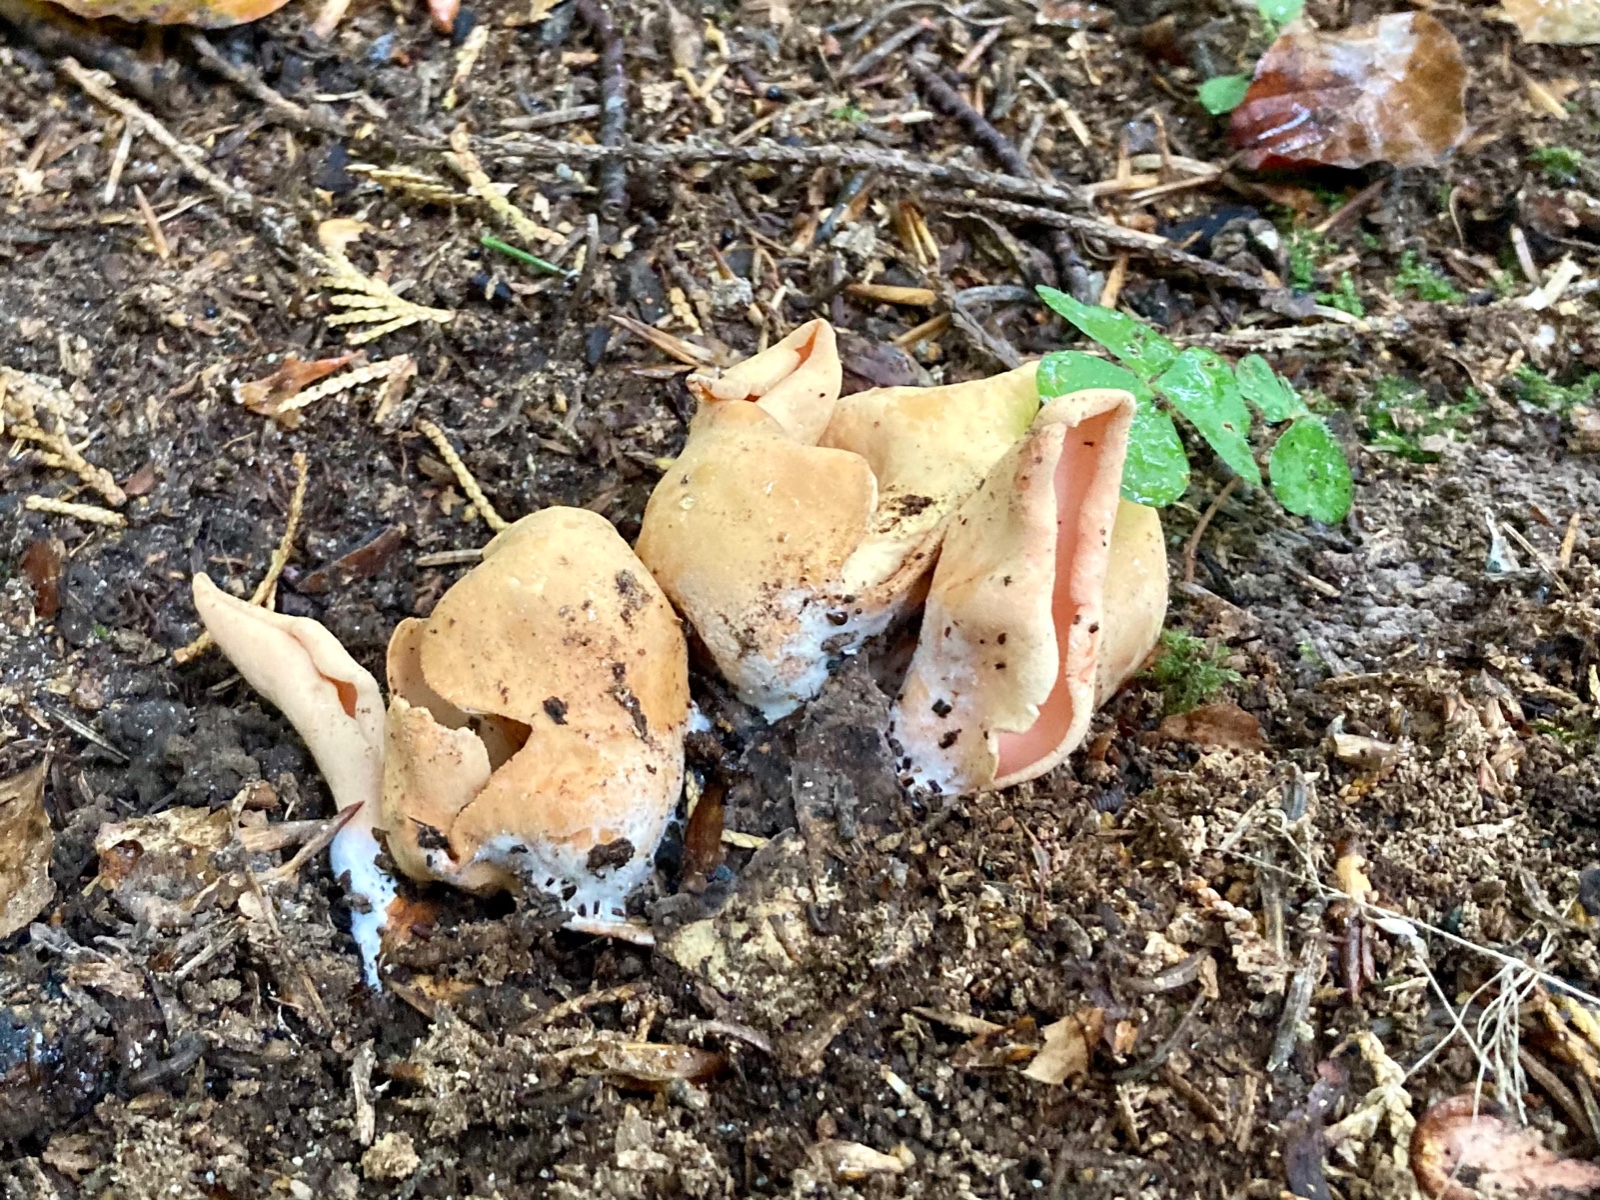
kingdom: Fungi
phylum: Ascomycota
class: Pezizomycetes
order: Pezizales
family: Otideaceae
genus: Otidea
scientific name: Otidea onotica
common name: æsel-ørebæger
